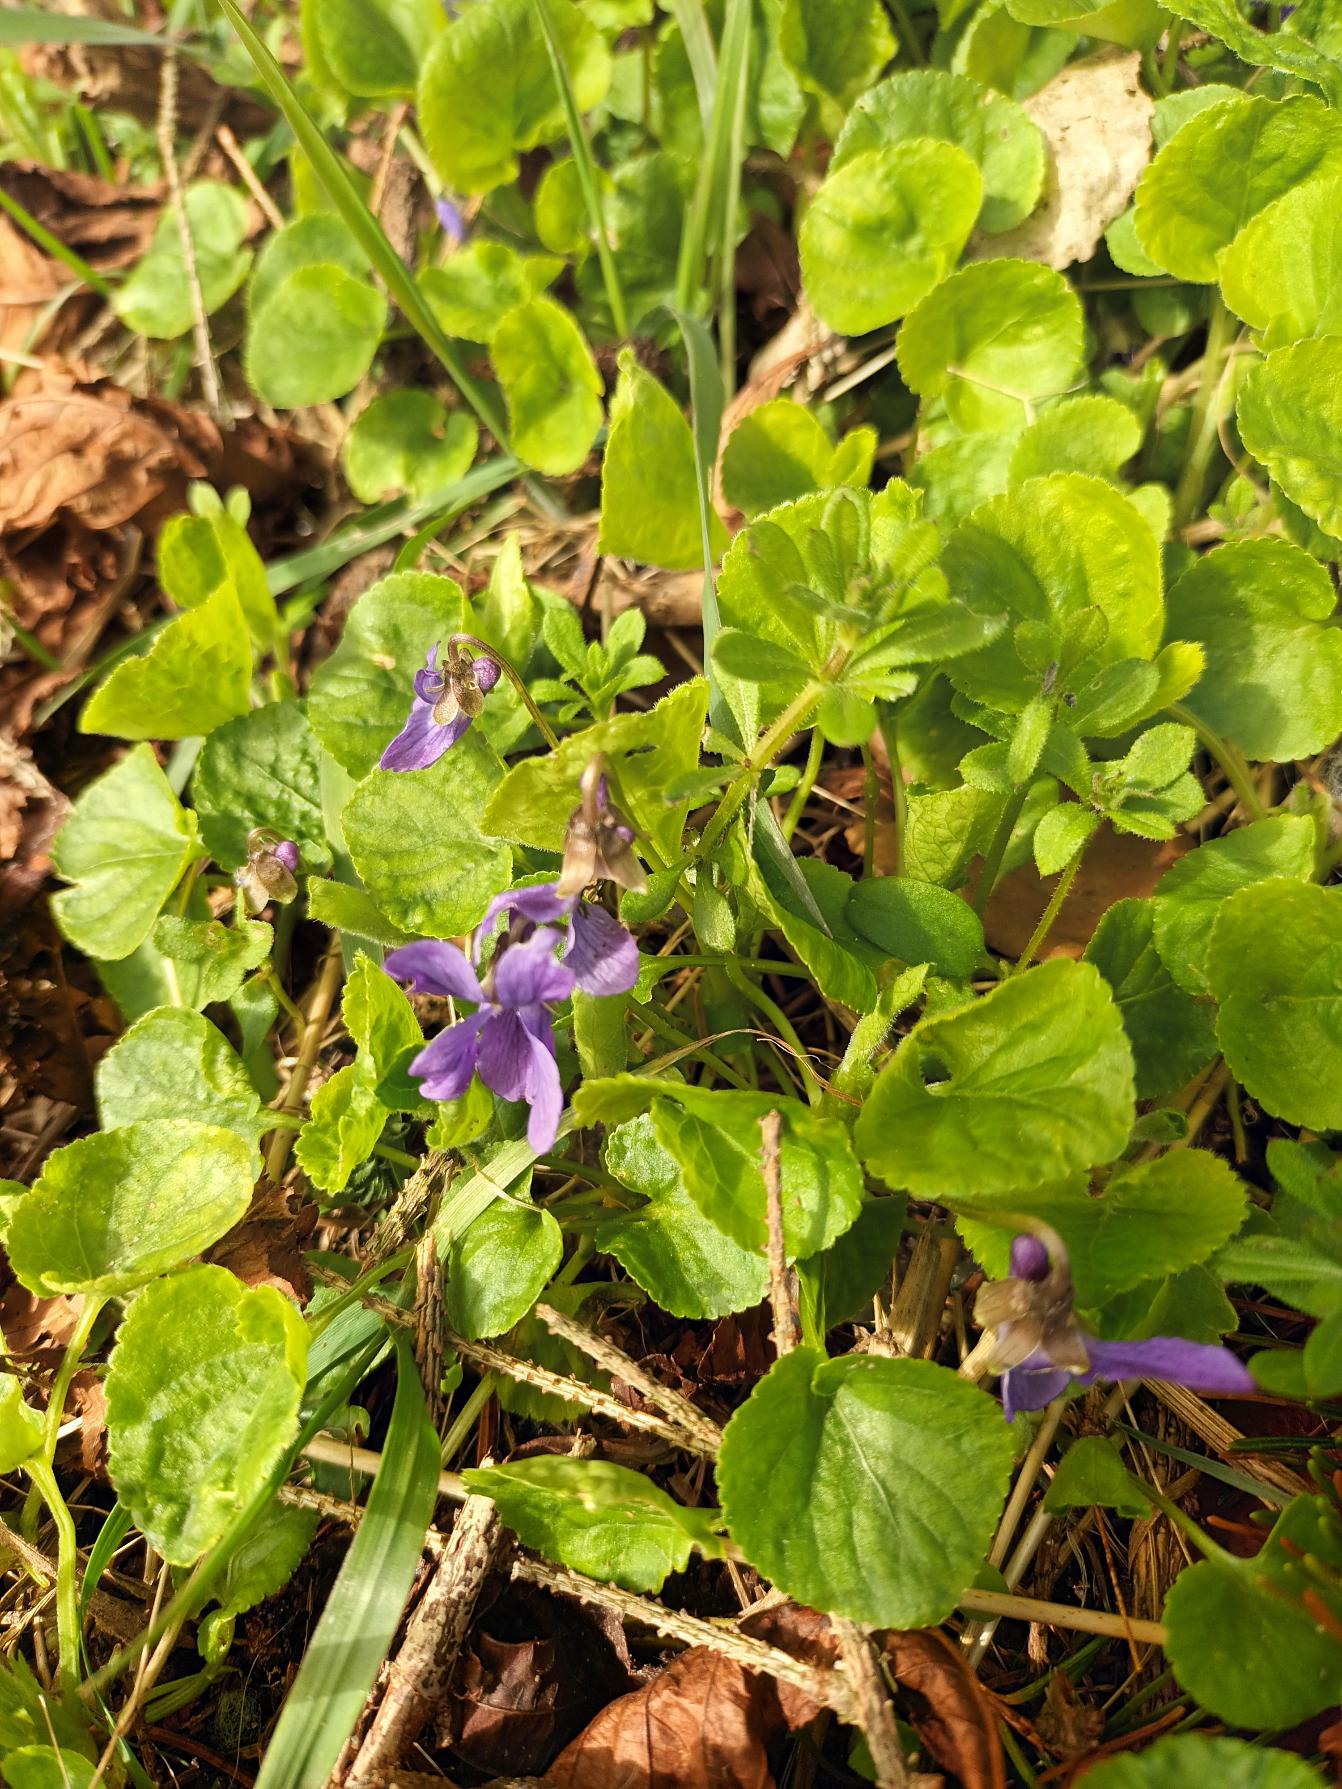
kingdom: Plantae
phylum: Tracheophyta
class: Magnoliopsida
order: Malpighiales
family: Violaceae
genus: Viola
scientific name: Viola odorata
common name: Marts-viol
